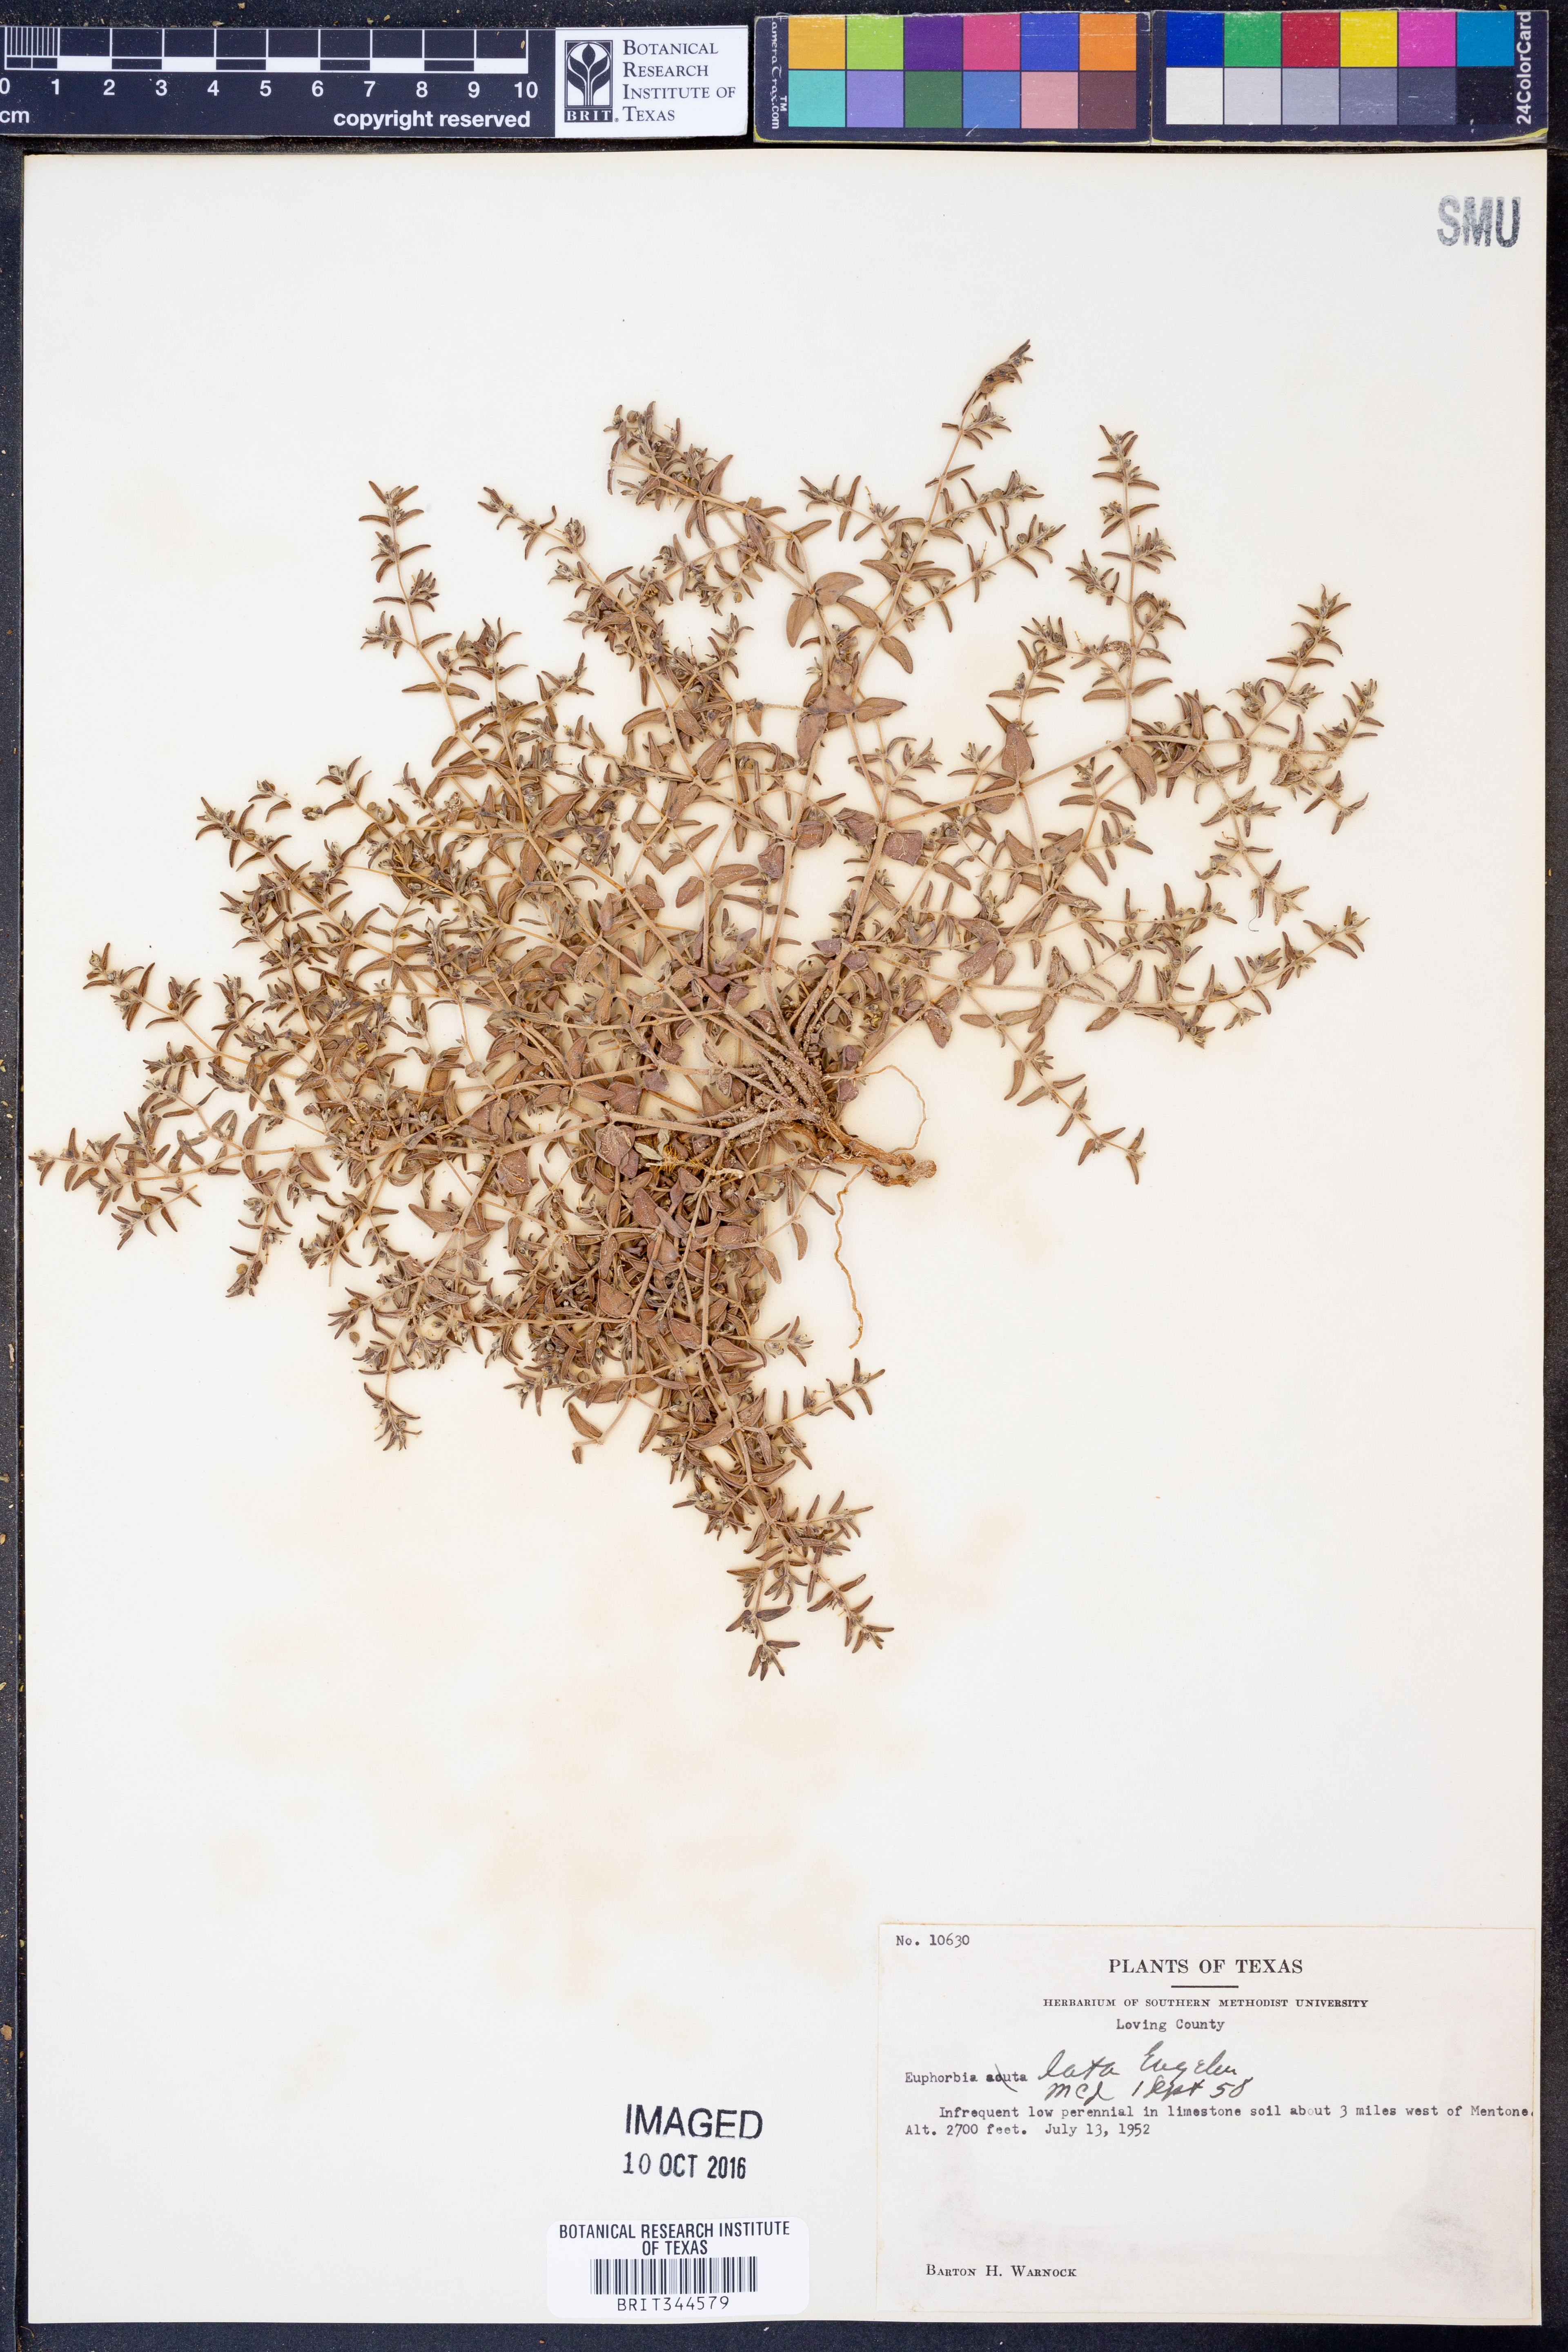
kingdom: Plantae
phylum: Tracheophyta
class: Magnoliopsida
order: Malpighiales
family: Euphorbiaceae
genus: Euphorbia
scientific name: Euphorbia lata
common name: Hoary euphorbia
